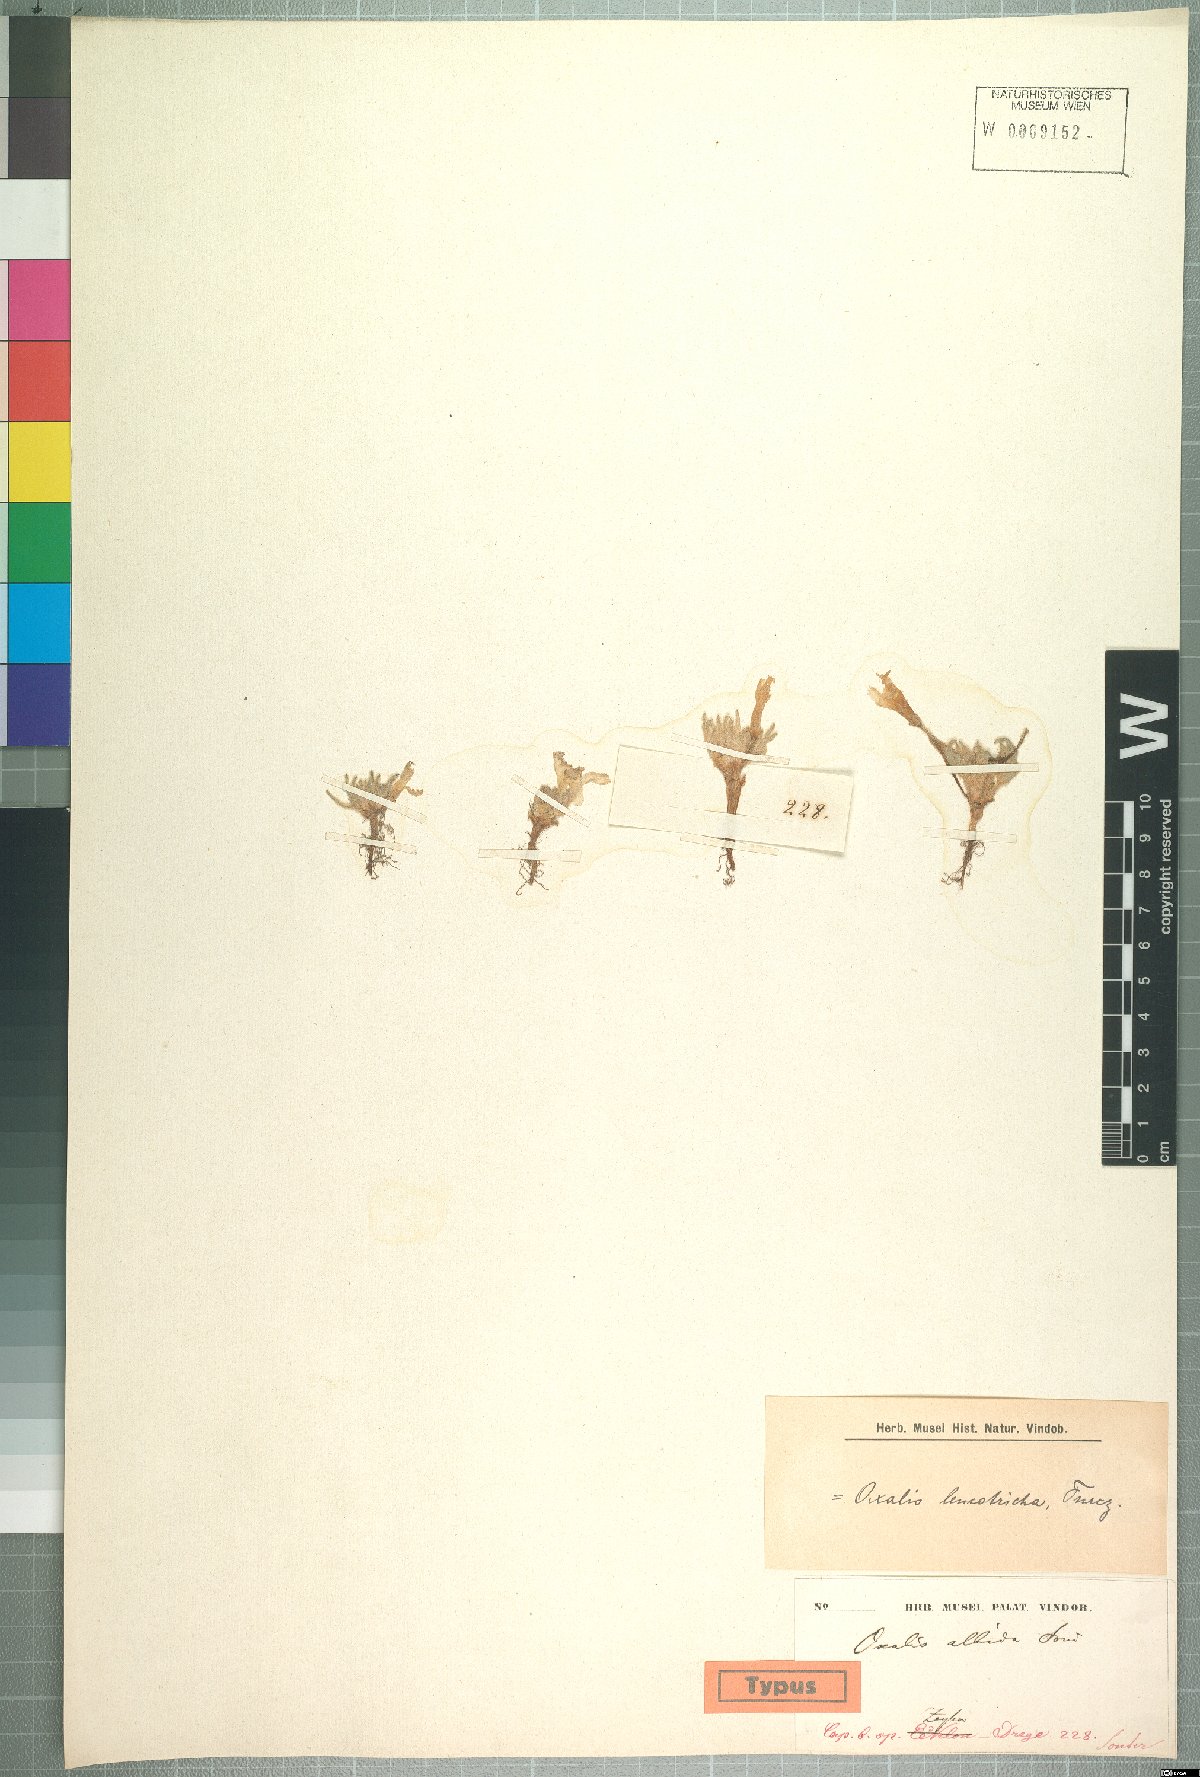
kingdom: Plantae
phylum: Tracheophyta
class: Magnoliopsida
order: Oxalidales
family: Oxalidaceae
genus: Oxalis
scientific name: Oxalis pulchella
